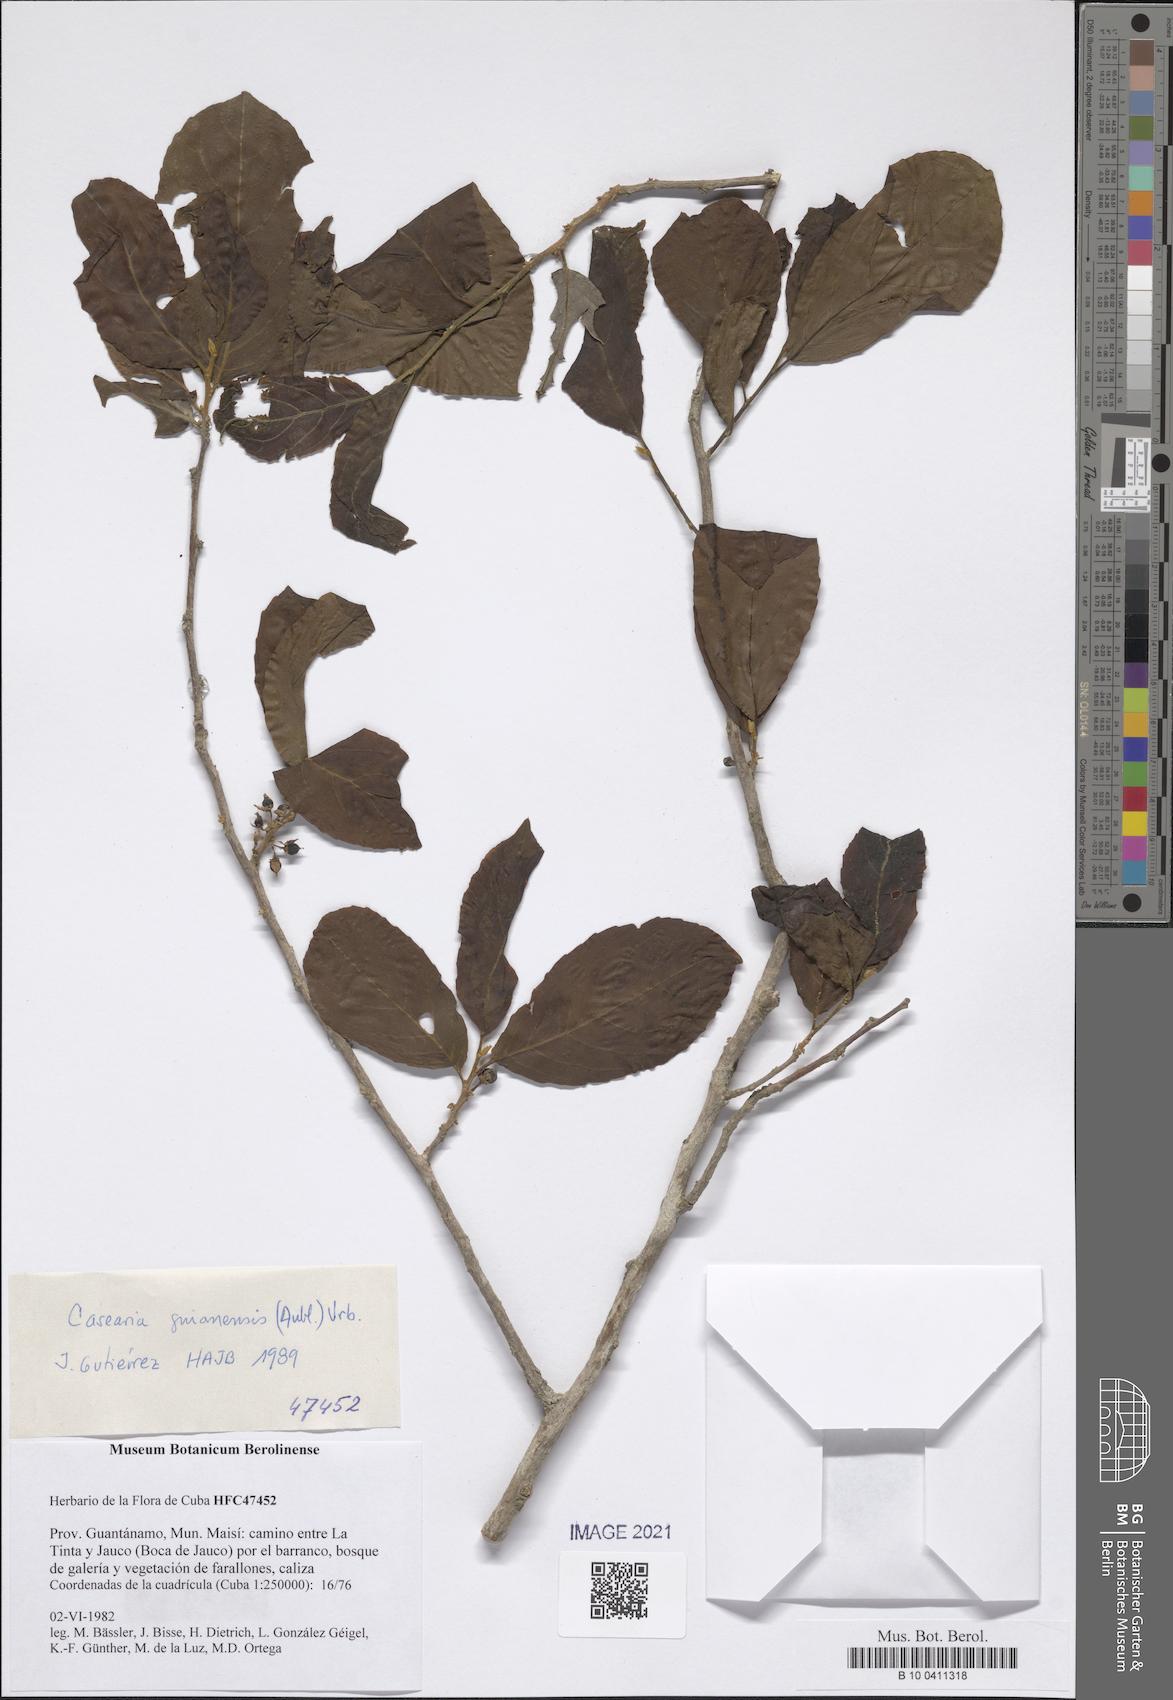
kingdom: Plantae
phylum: Tracheophyta
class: Magnoliopsida
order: Malpighiales
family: Salicaceae
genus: Casearia
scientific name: Casearia guianensis
